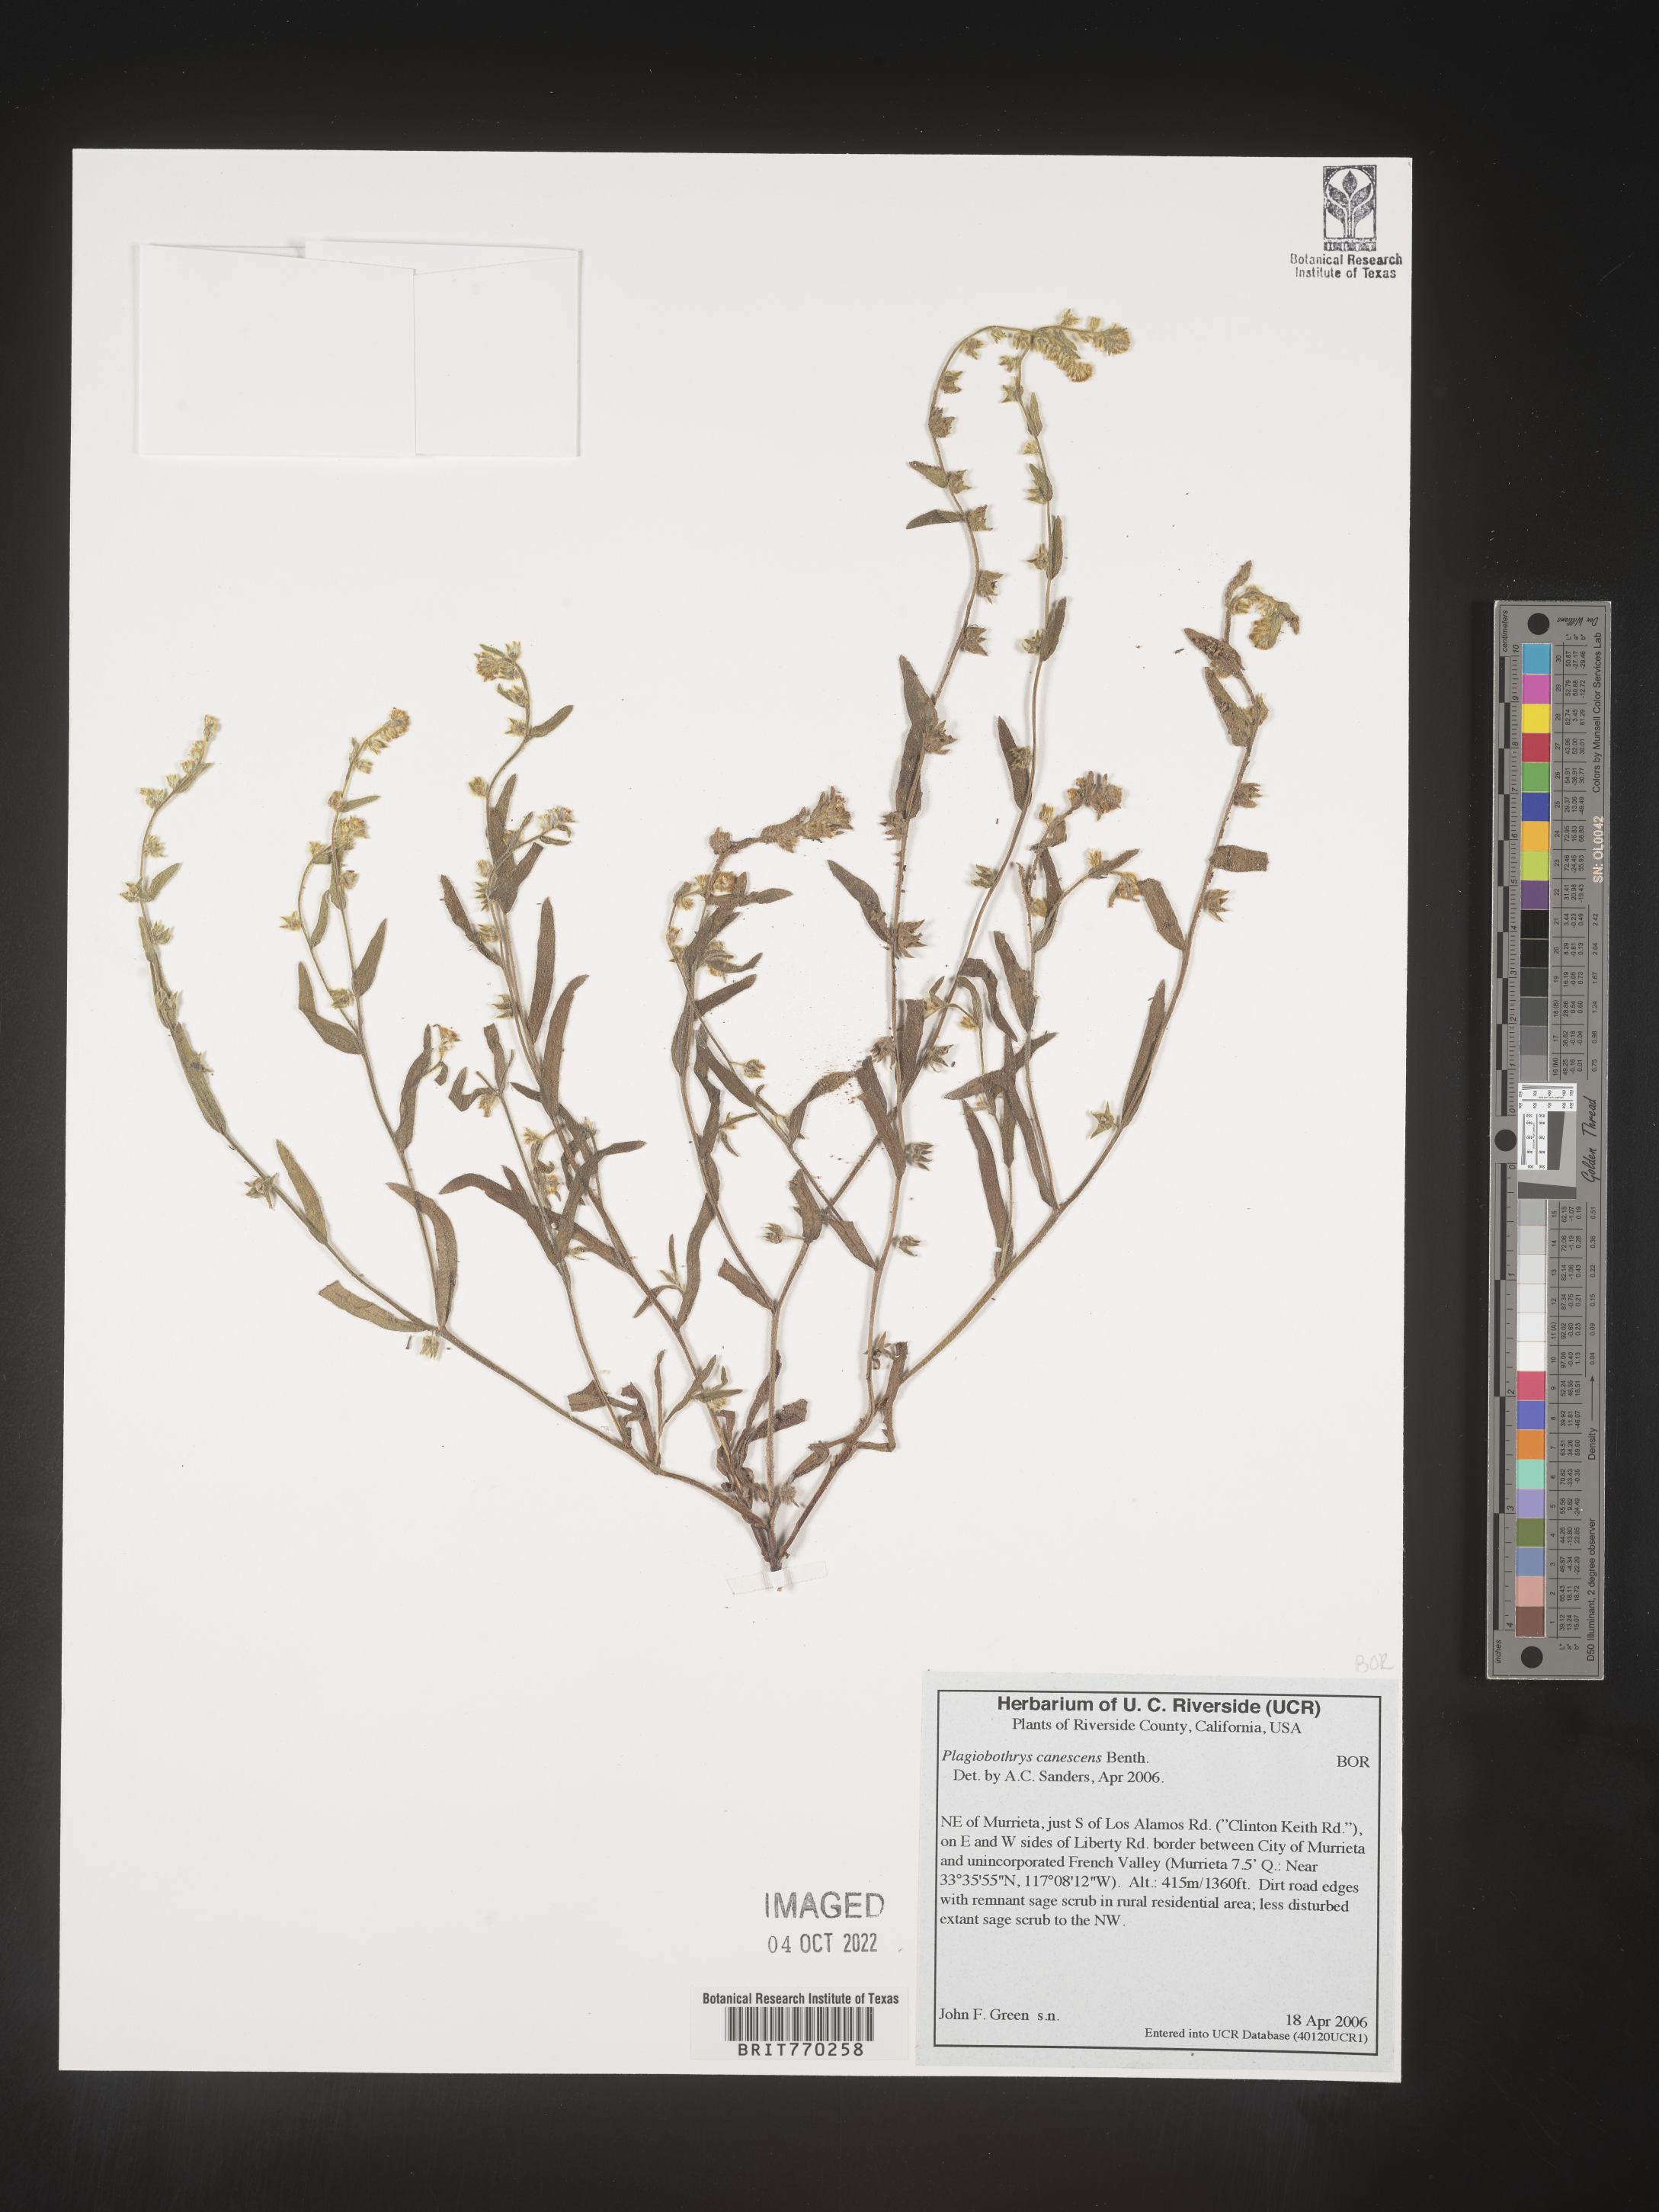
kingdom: Plantae
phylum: Tracheophyta
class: Magnoliopsida
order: Boraginales
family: Boraginaceae
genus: Plagiobothrys
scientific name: Plagiobothrys
